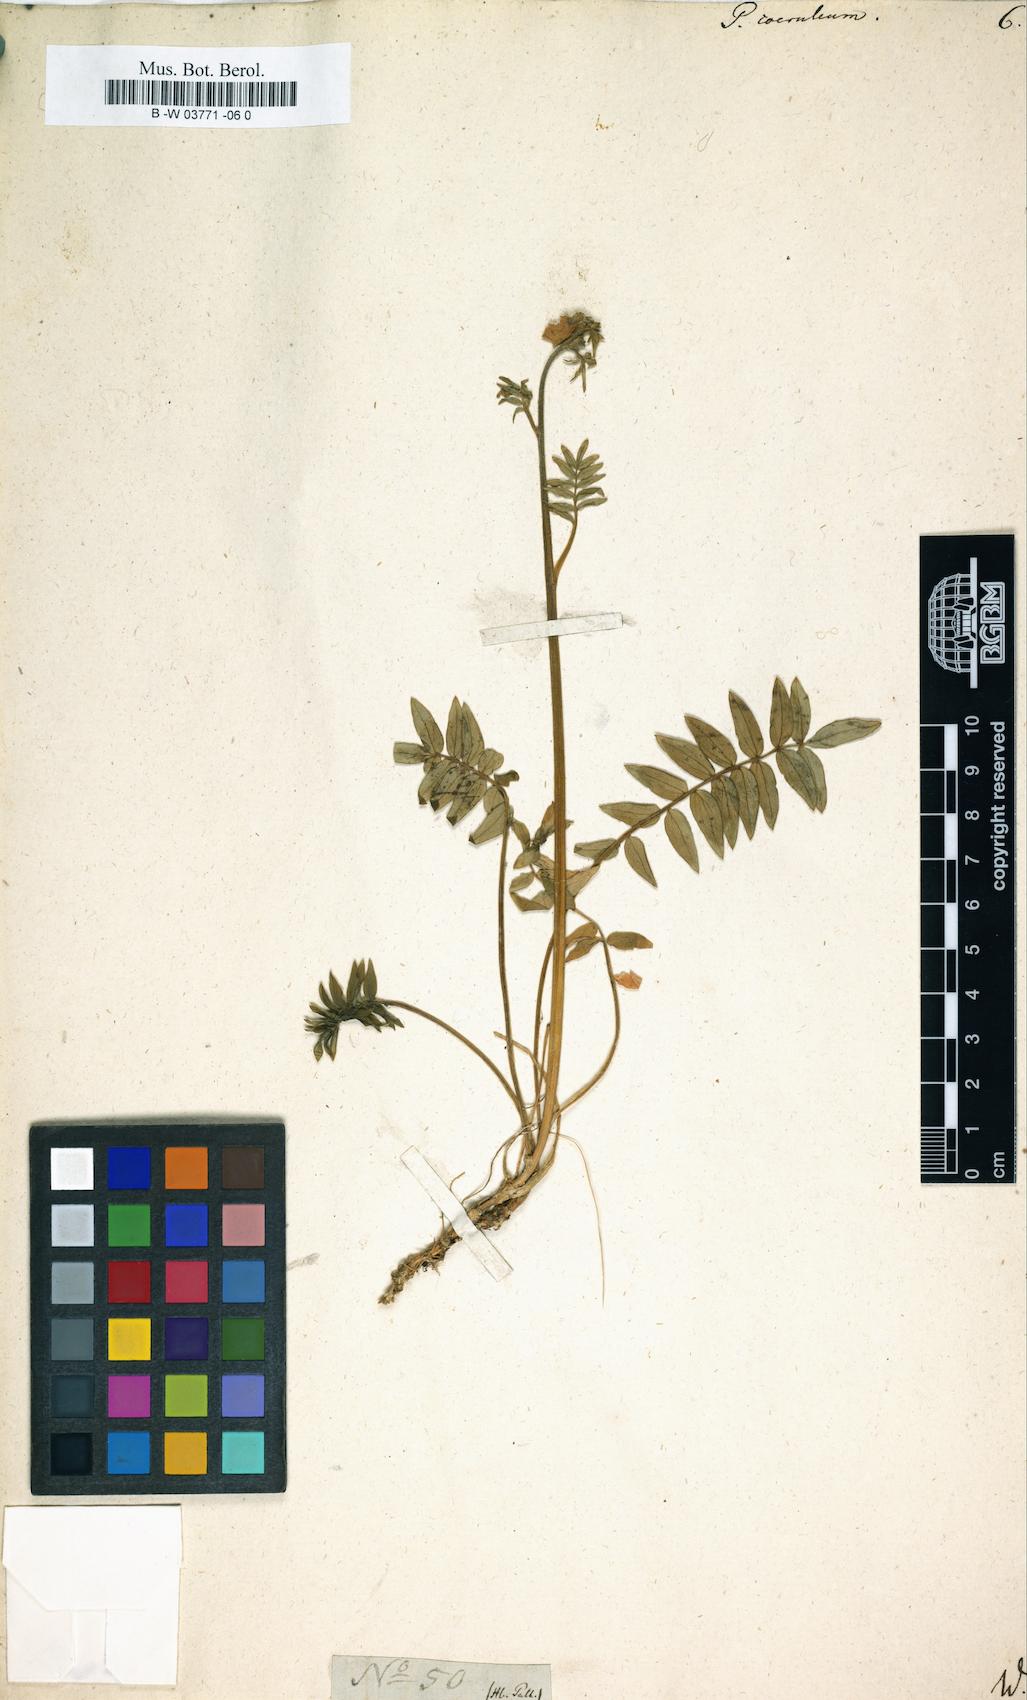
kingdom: Plantae
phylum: Tracheophyta
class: Magnoliopsida
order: Ericales
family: Polemoniaceae
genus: Polemonium
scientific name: Polemonium caeruleum
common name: Jacob's-ladder
